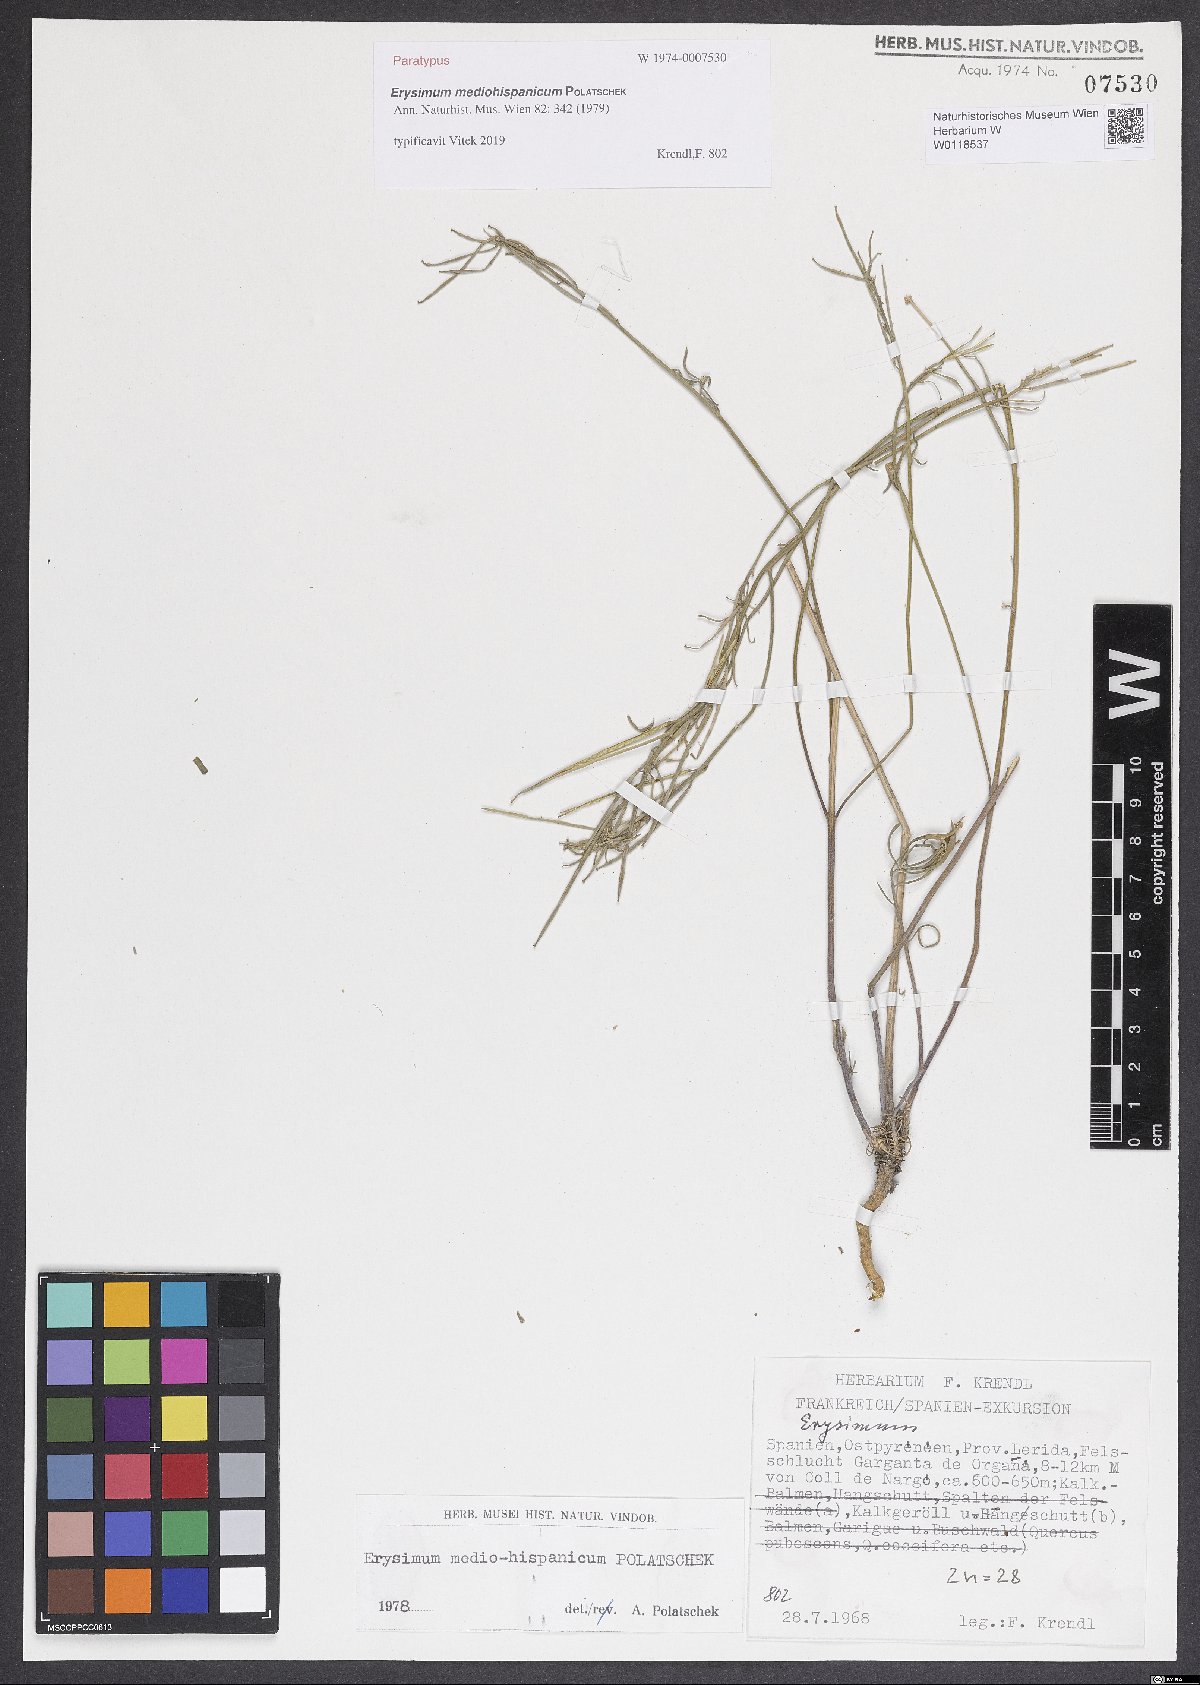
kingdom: Plantae
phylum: Tracheophyta
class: Magnoliopsida
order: Brassicales
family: Brassicaceae
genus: Erysimum
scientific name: Erysimum nevadense
